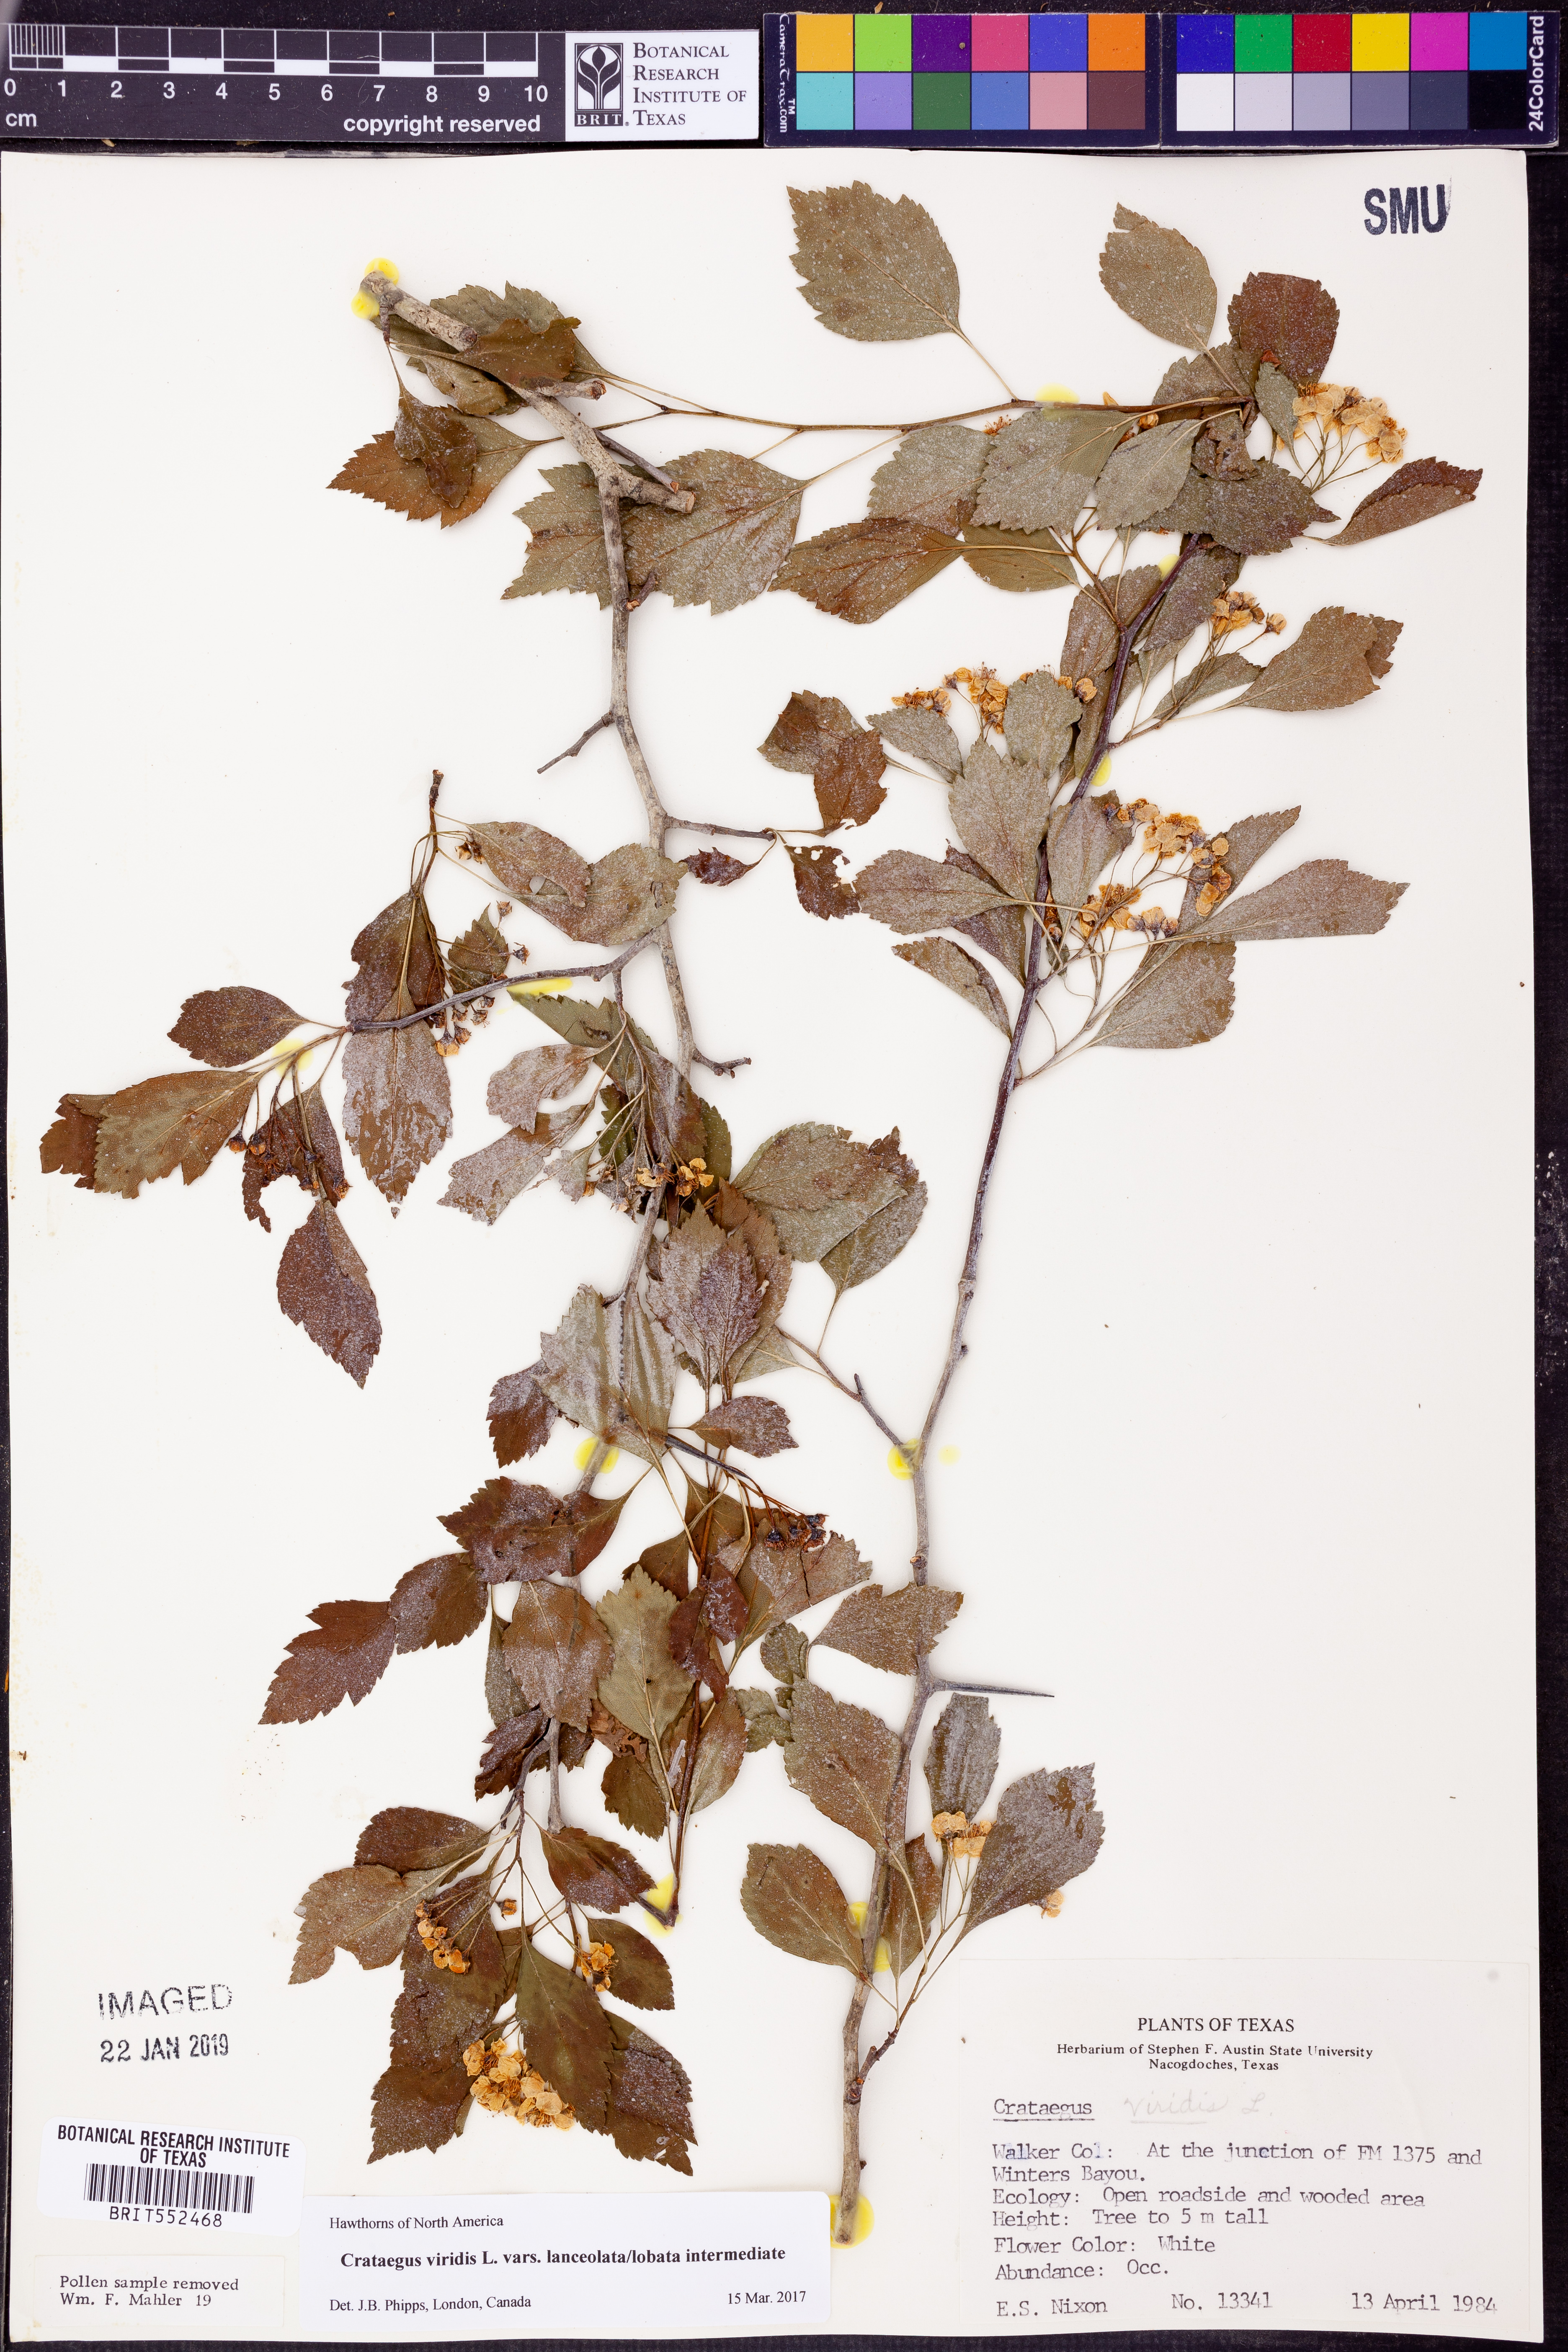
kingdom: Plantae
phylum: Tracheophyta
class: Magnoliopsida
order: Rosales
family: Rosaceae
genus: Crataegus
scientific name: Crataegus viridis
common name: Southernthorn
